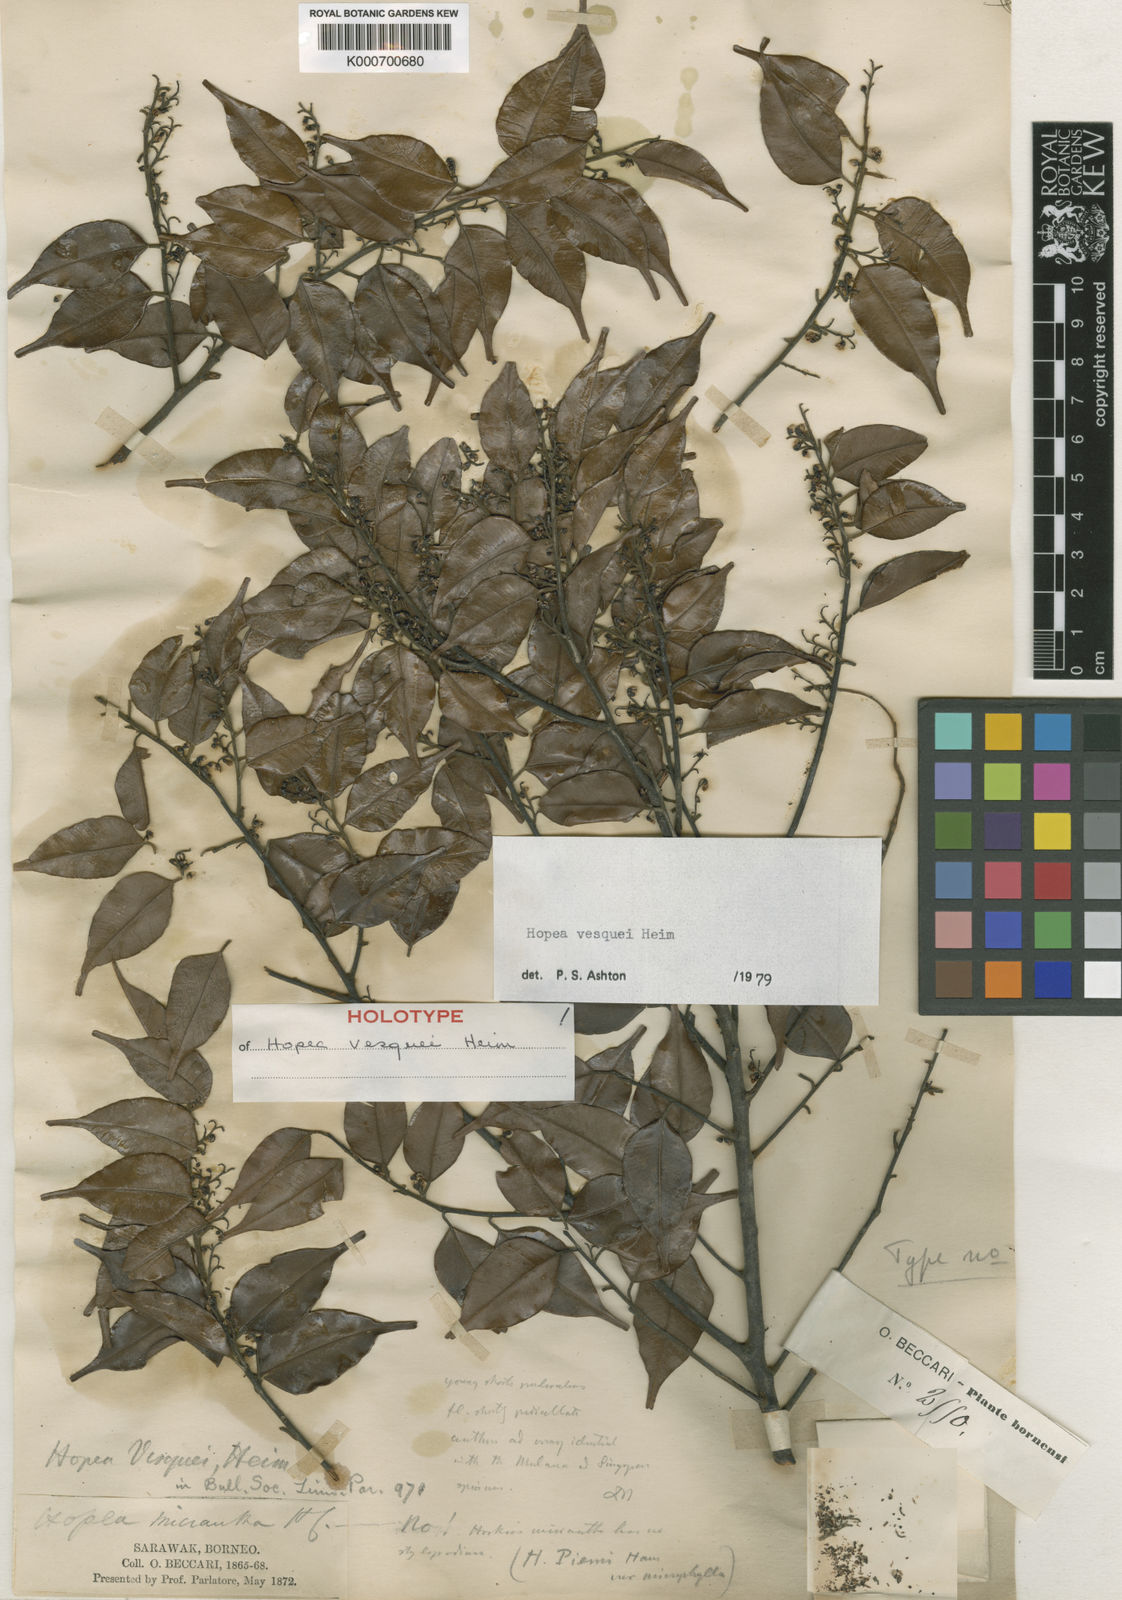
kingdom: Plantae
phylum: Tracheophyta
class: Magnoliopsida
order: Malvales
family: Dipterocarpaceae
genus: Hopea
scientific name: Hopea vesquei
